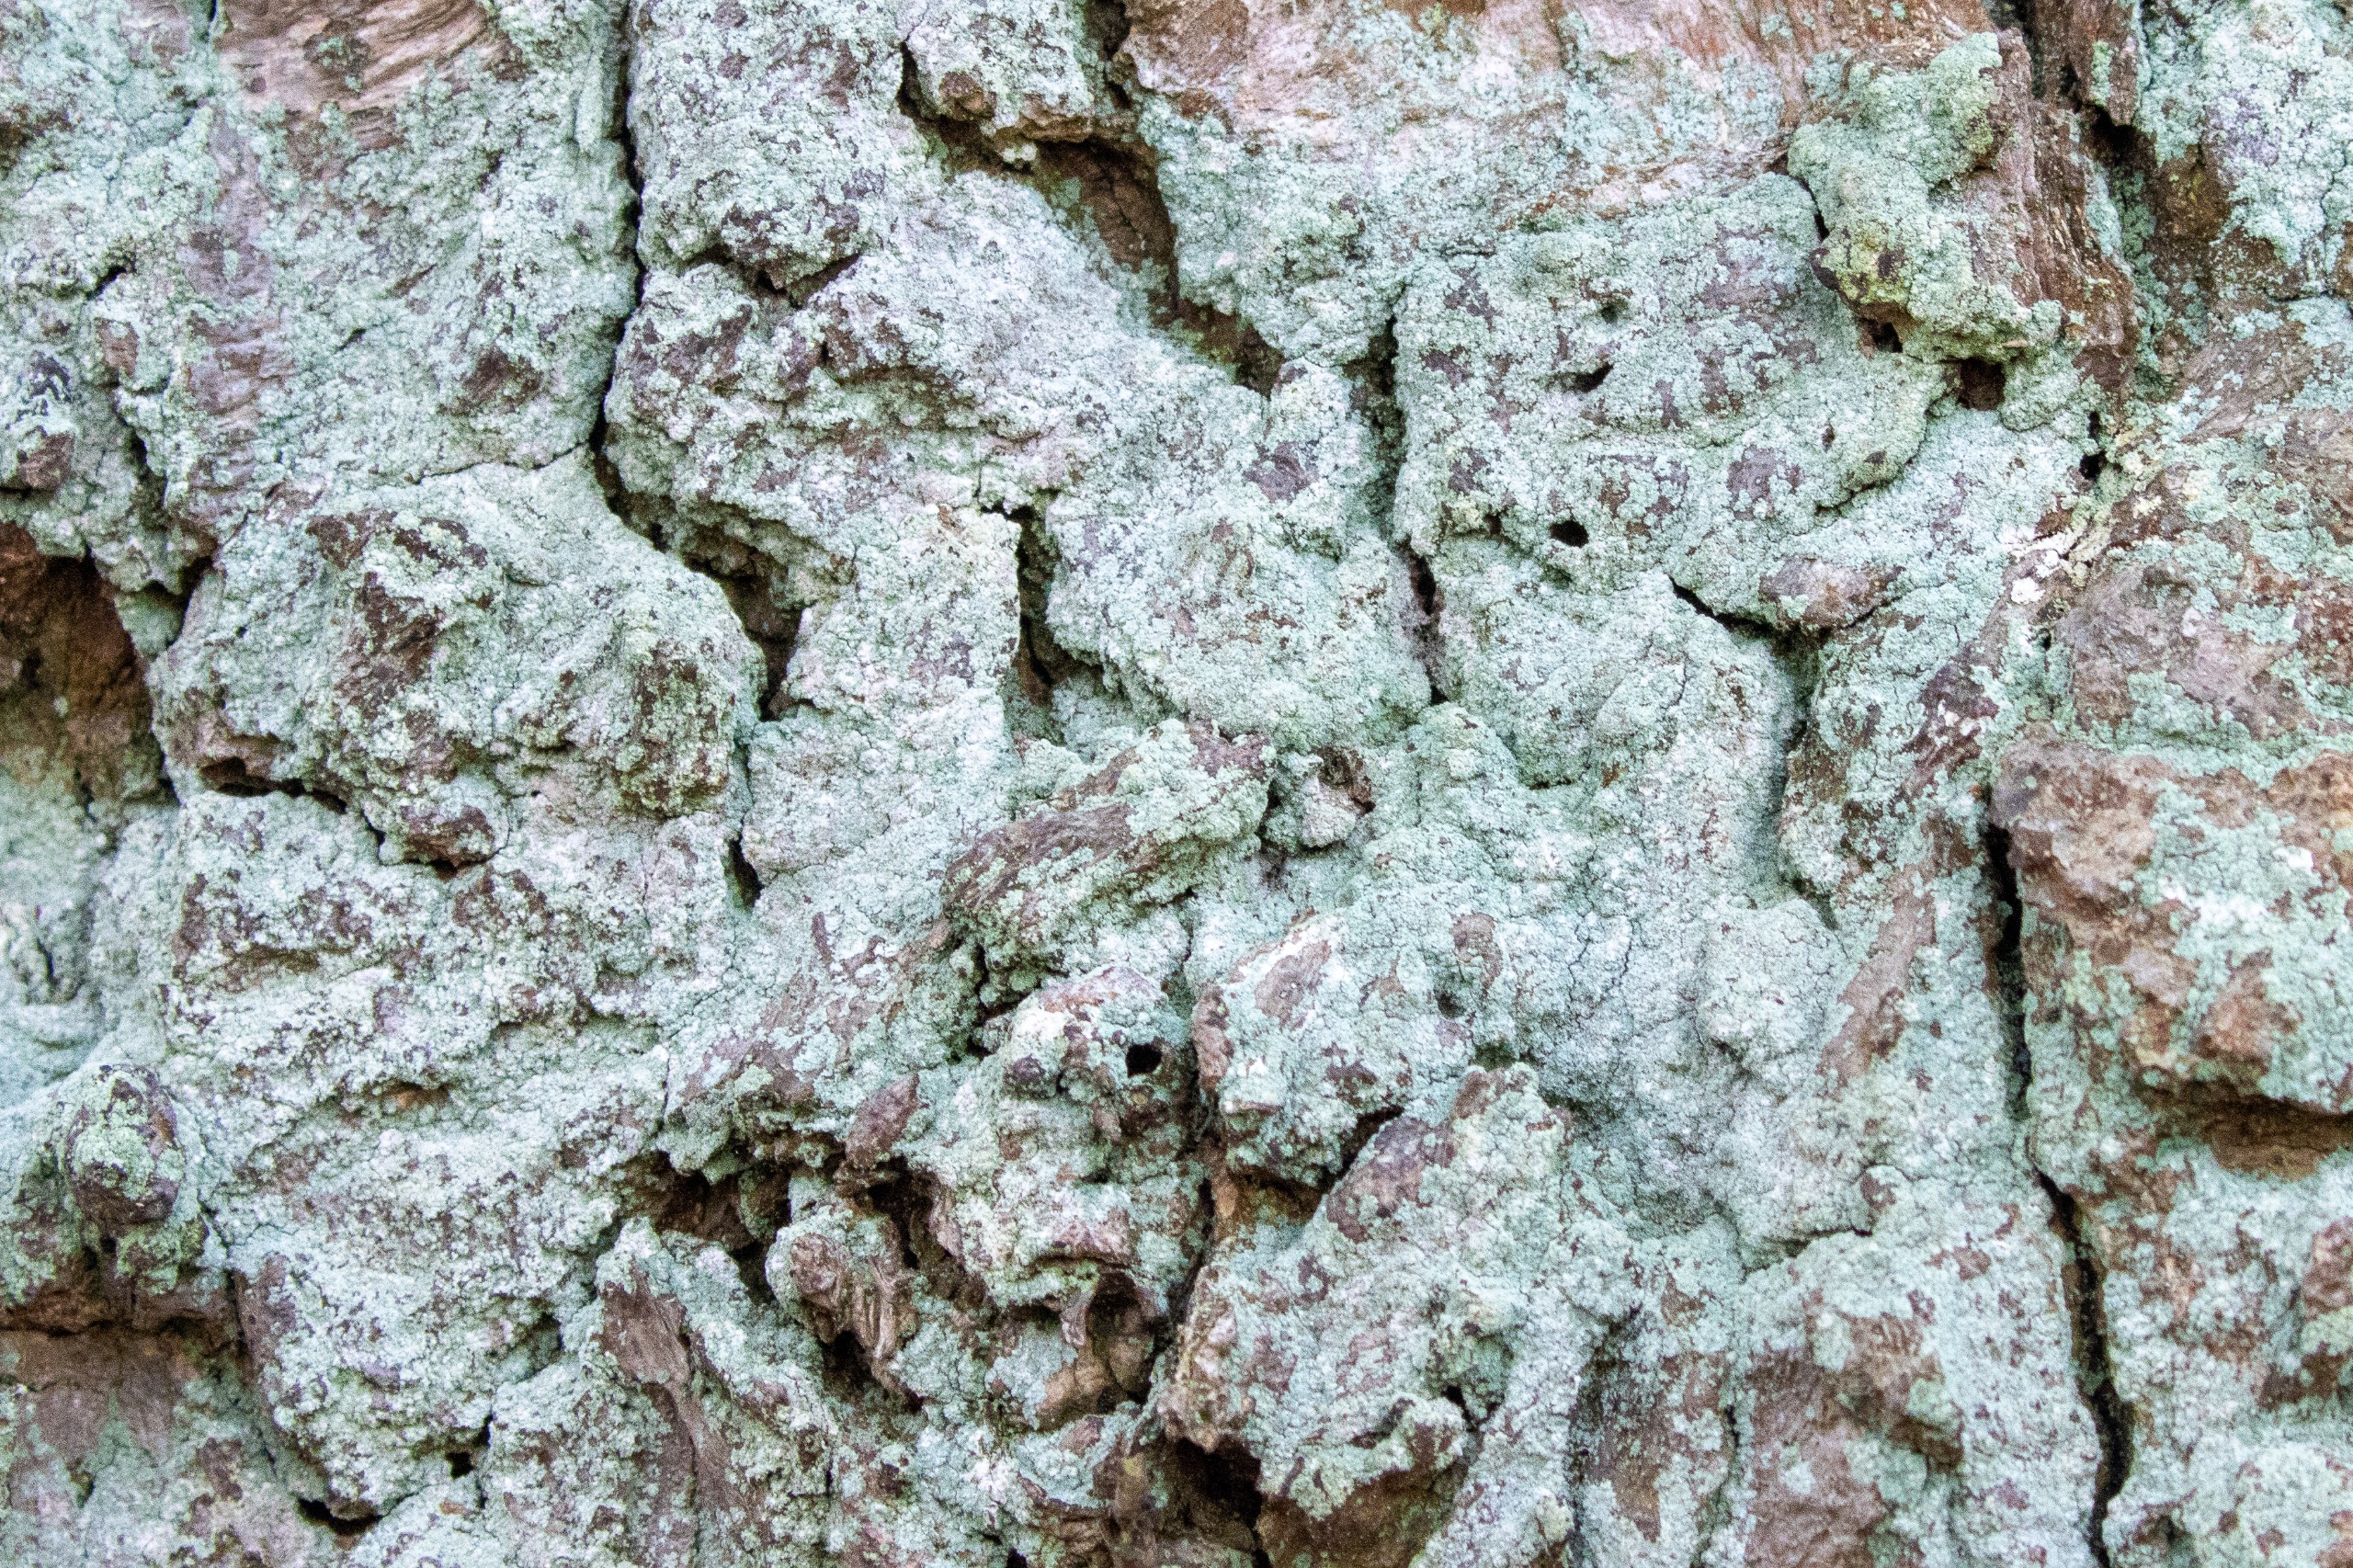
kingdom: Fungi
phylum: Ascomycota
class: Lecanoromycetes
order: Lecanorales
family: Stereocaulaceae
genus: Lepraria
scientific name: Lepraria
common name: Støvlav
